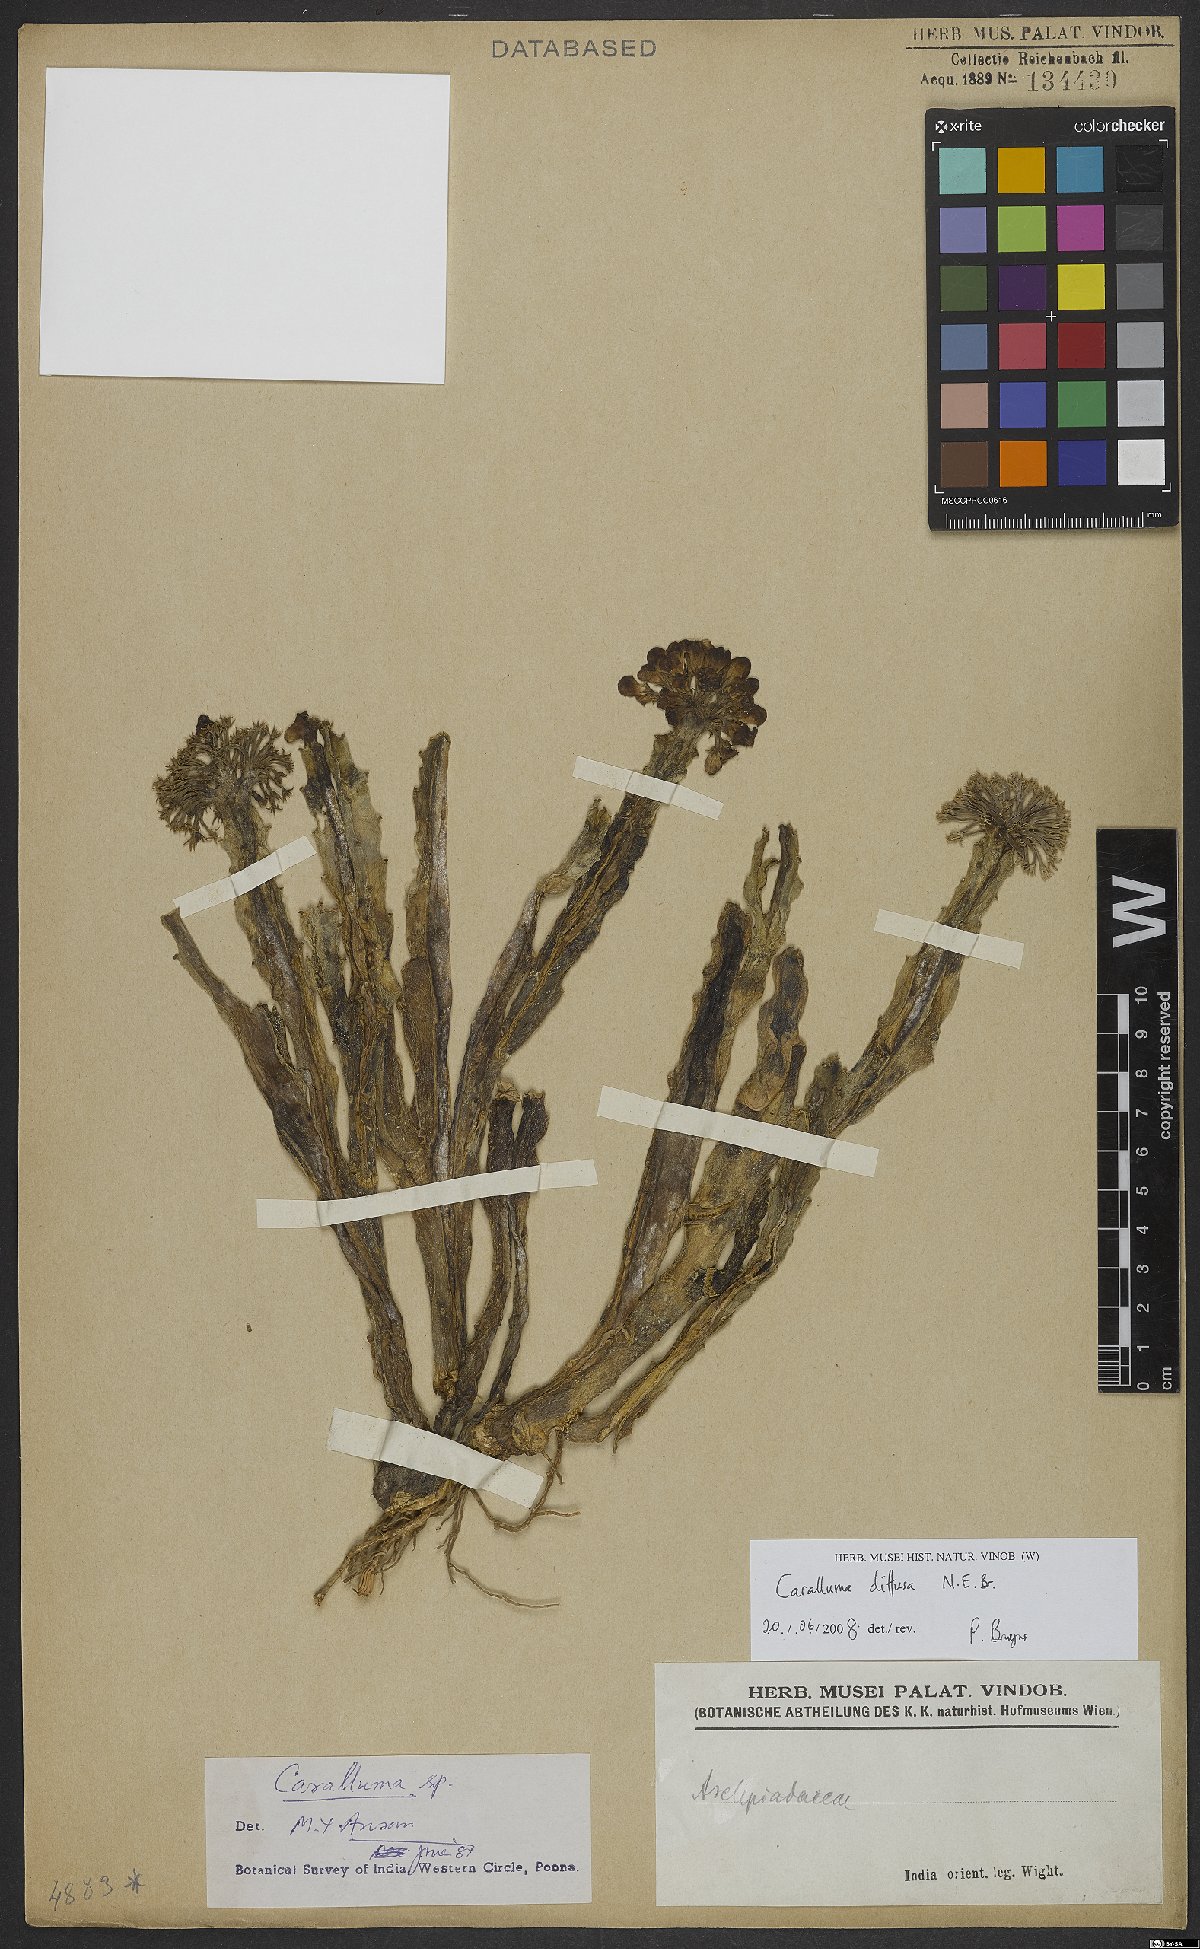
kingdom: Plantae
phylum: Tracheophyta
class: Magnoliopsida
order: Gentianales
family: Apocynaceae
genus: Ceropegia
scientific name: Ceropegia diffusa
